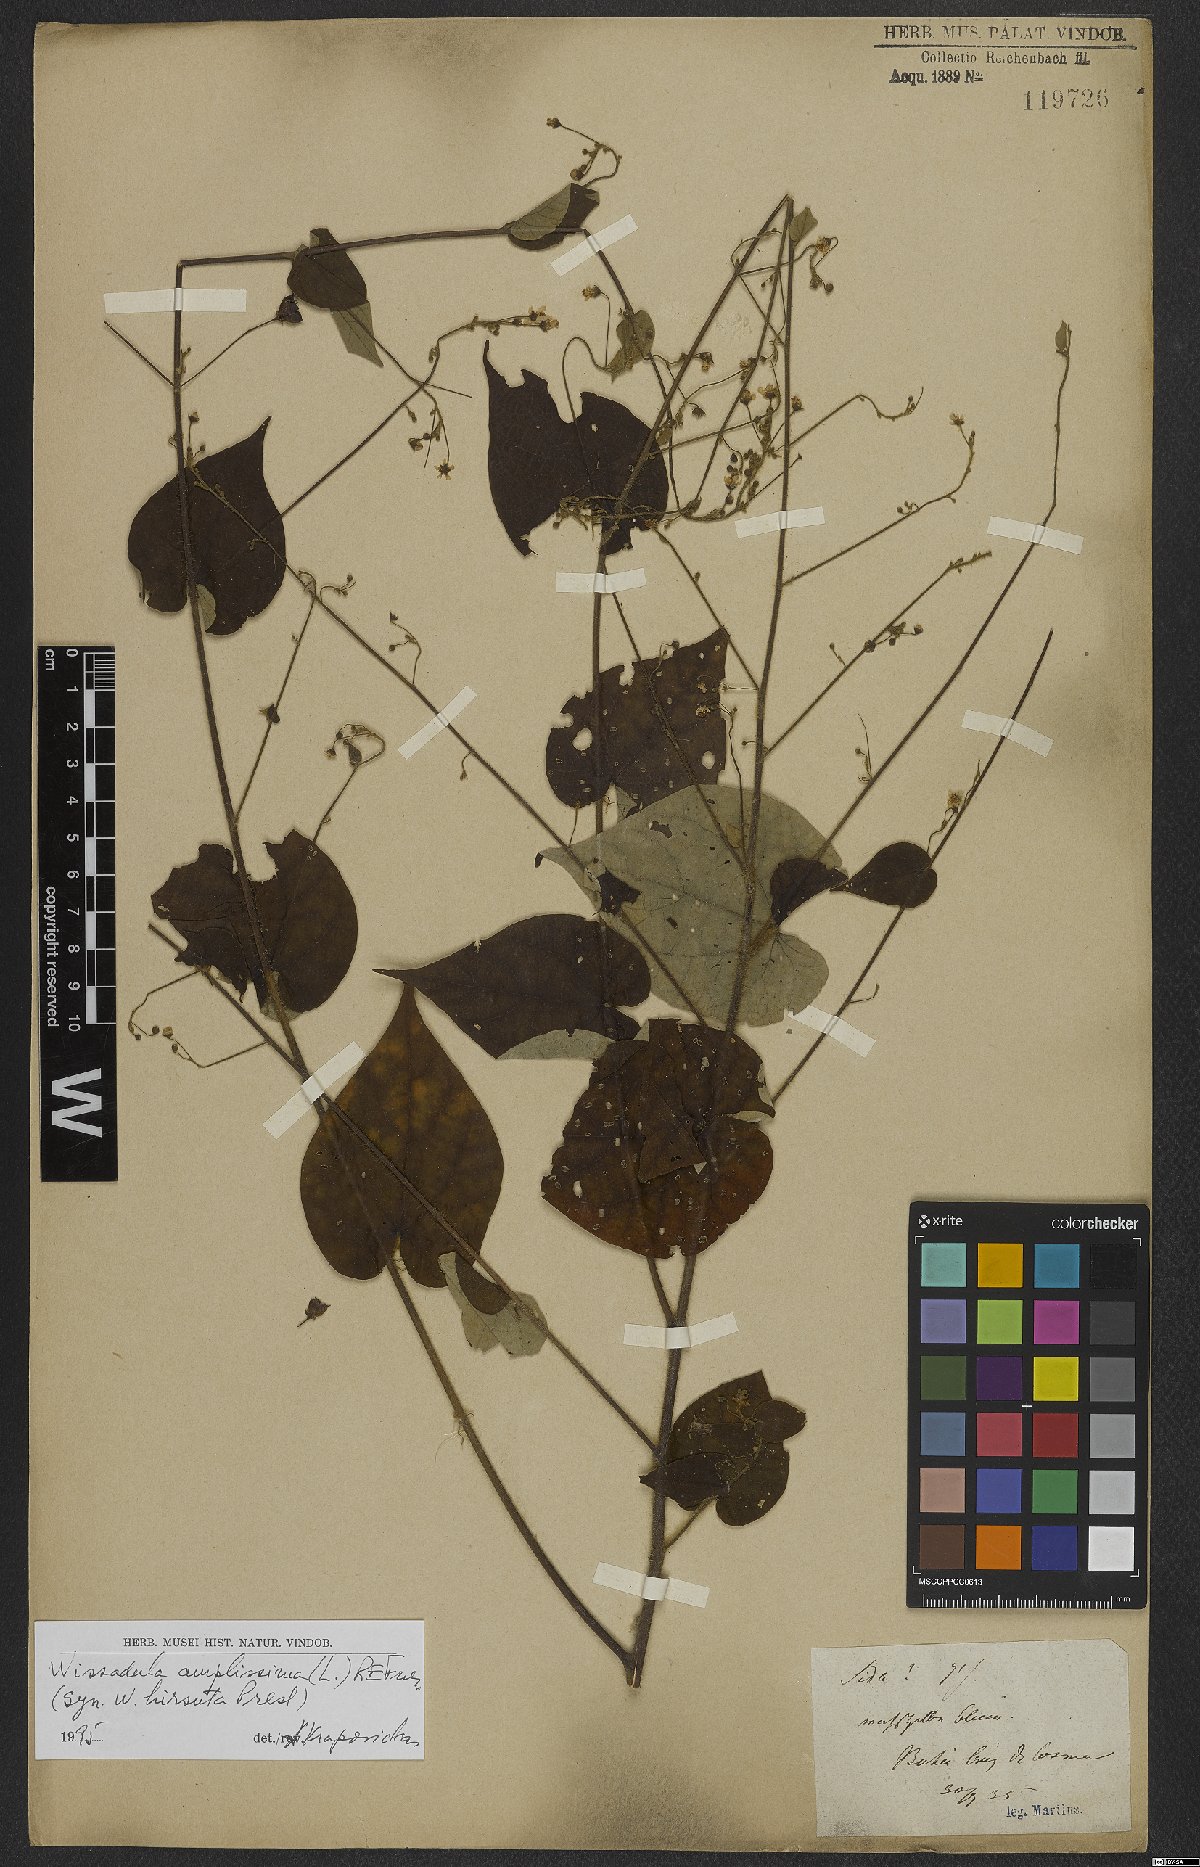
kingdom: Plantae
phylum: Tracheophyta
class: Magnoliopsida
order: Malvales
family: Malvaceae
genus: Wissadula
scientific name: Wissadula amplissima
